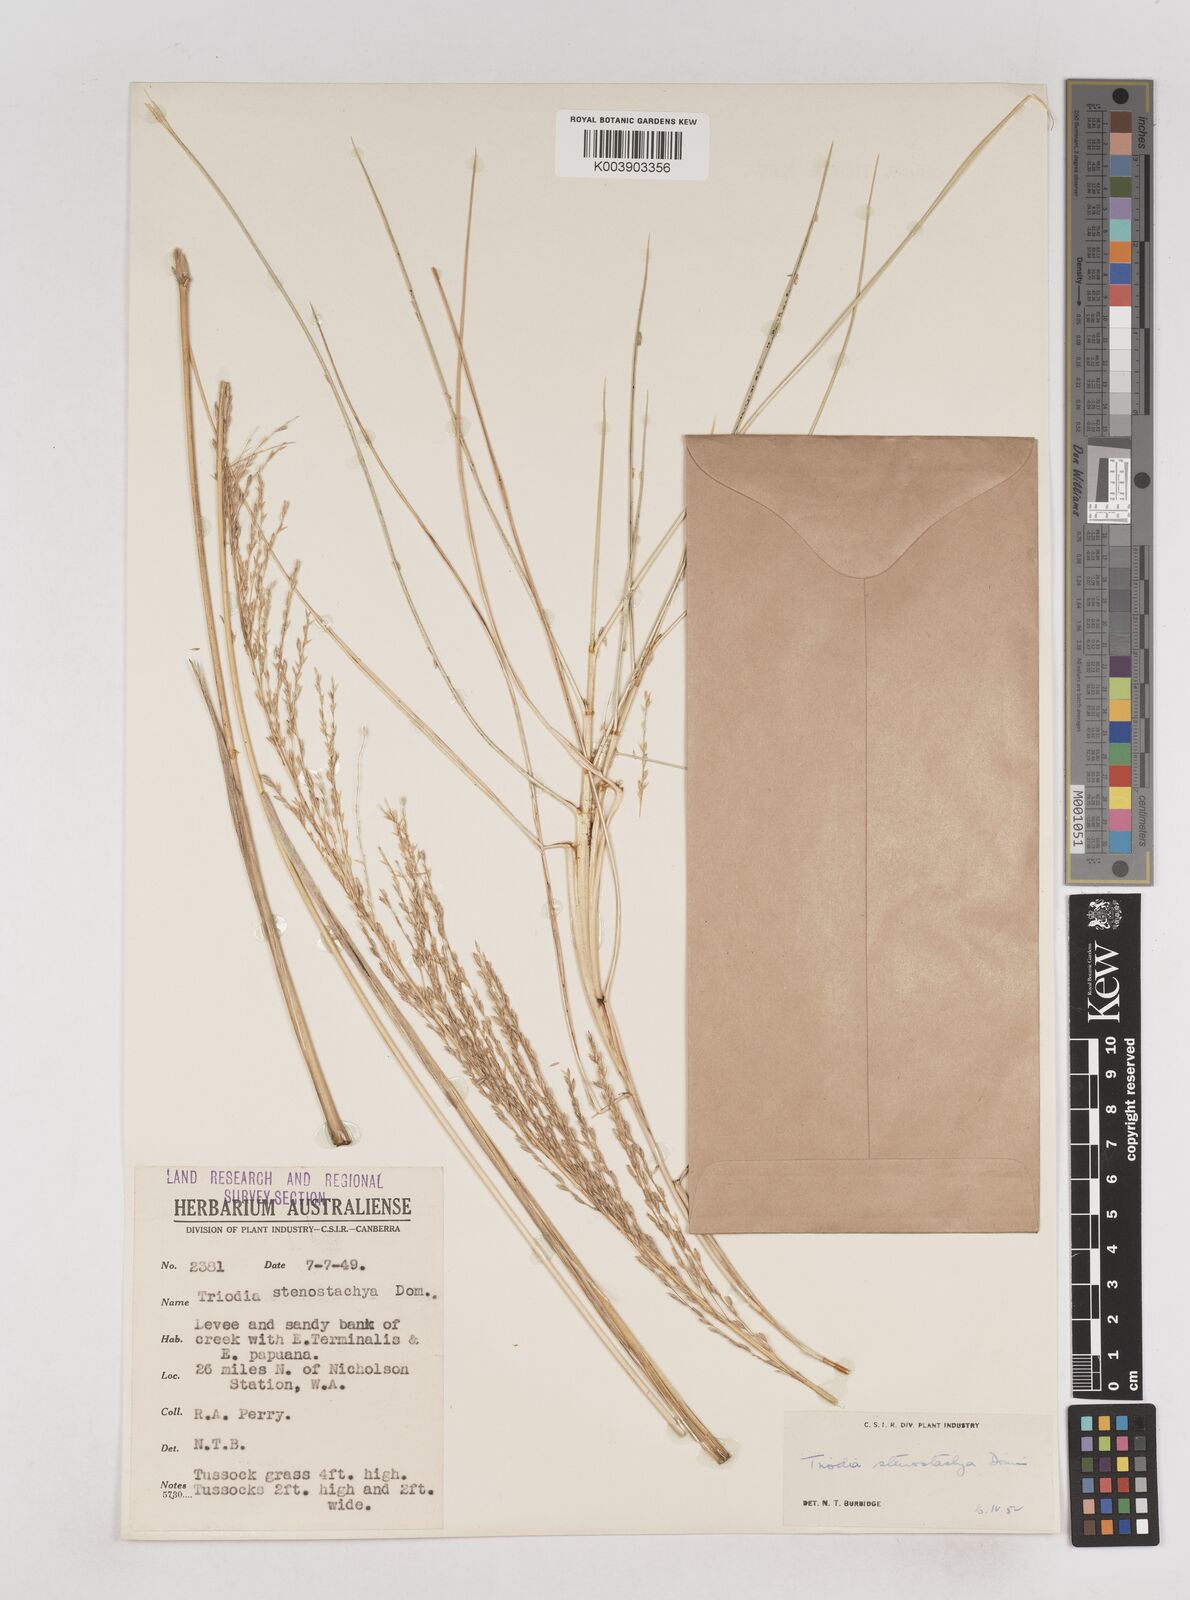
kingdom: Plantae
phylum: Tracheophyta
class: Liliopsida
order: Poales
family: Poaceae
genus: Triodia
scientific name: Triodia stenostachya
